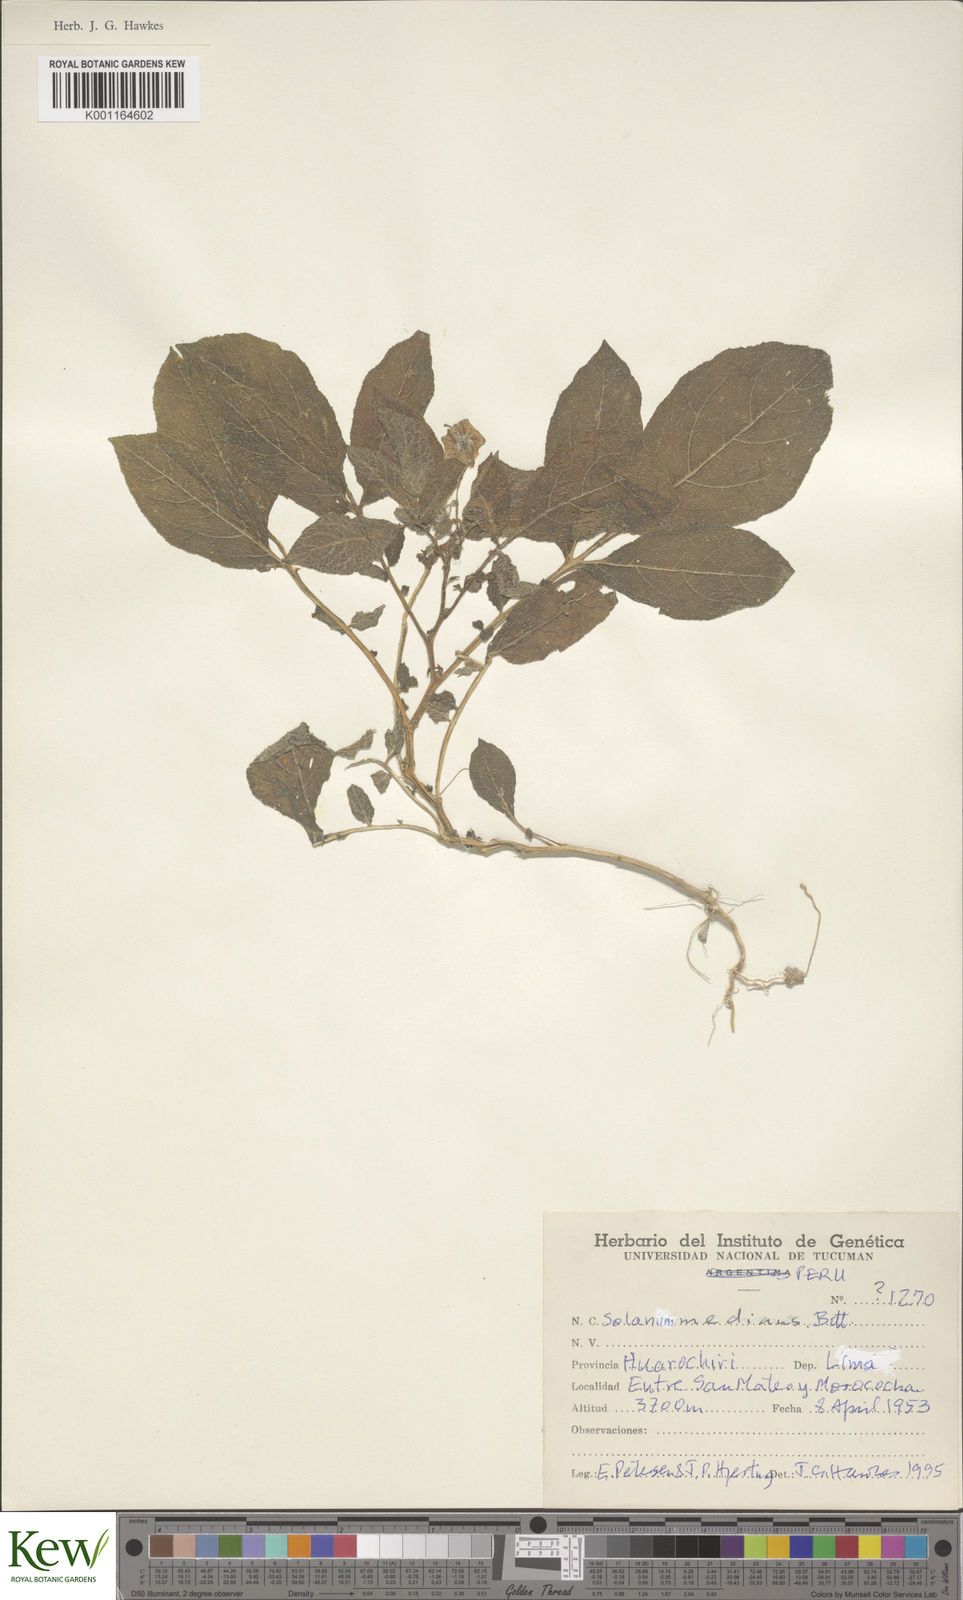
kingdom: Plantae
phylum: Tracheophyta
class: Magnoliopsida
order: Solanales
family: Solanaceae
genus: Solanum
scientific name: Solanum medians
